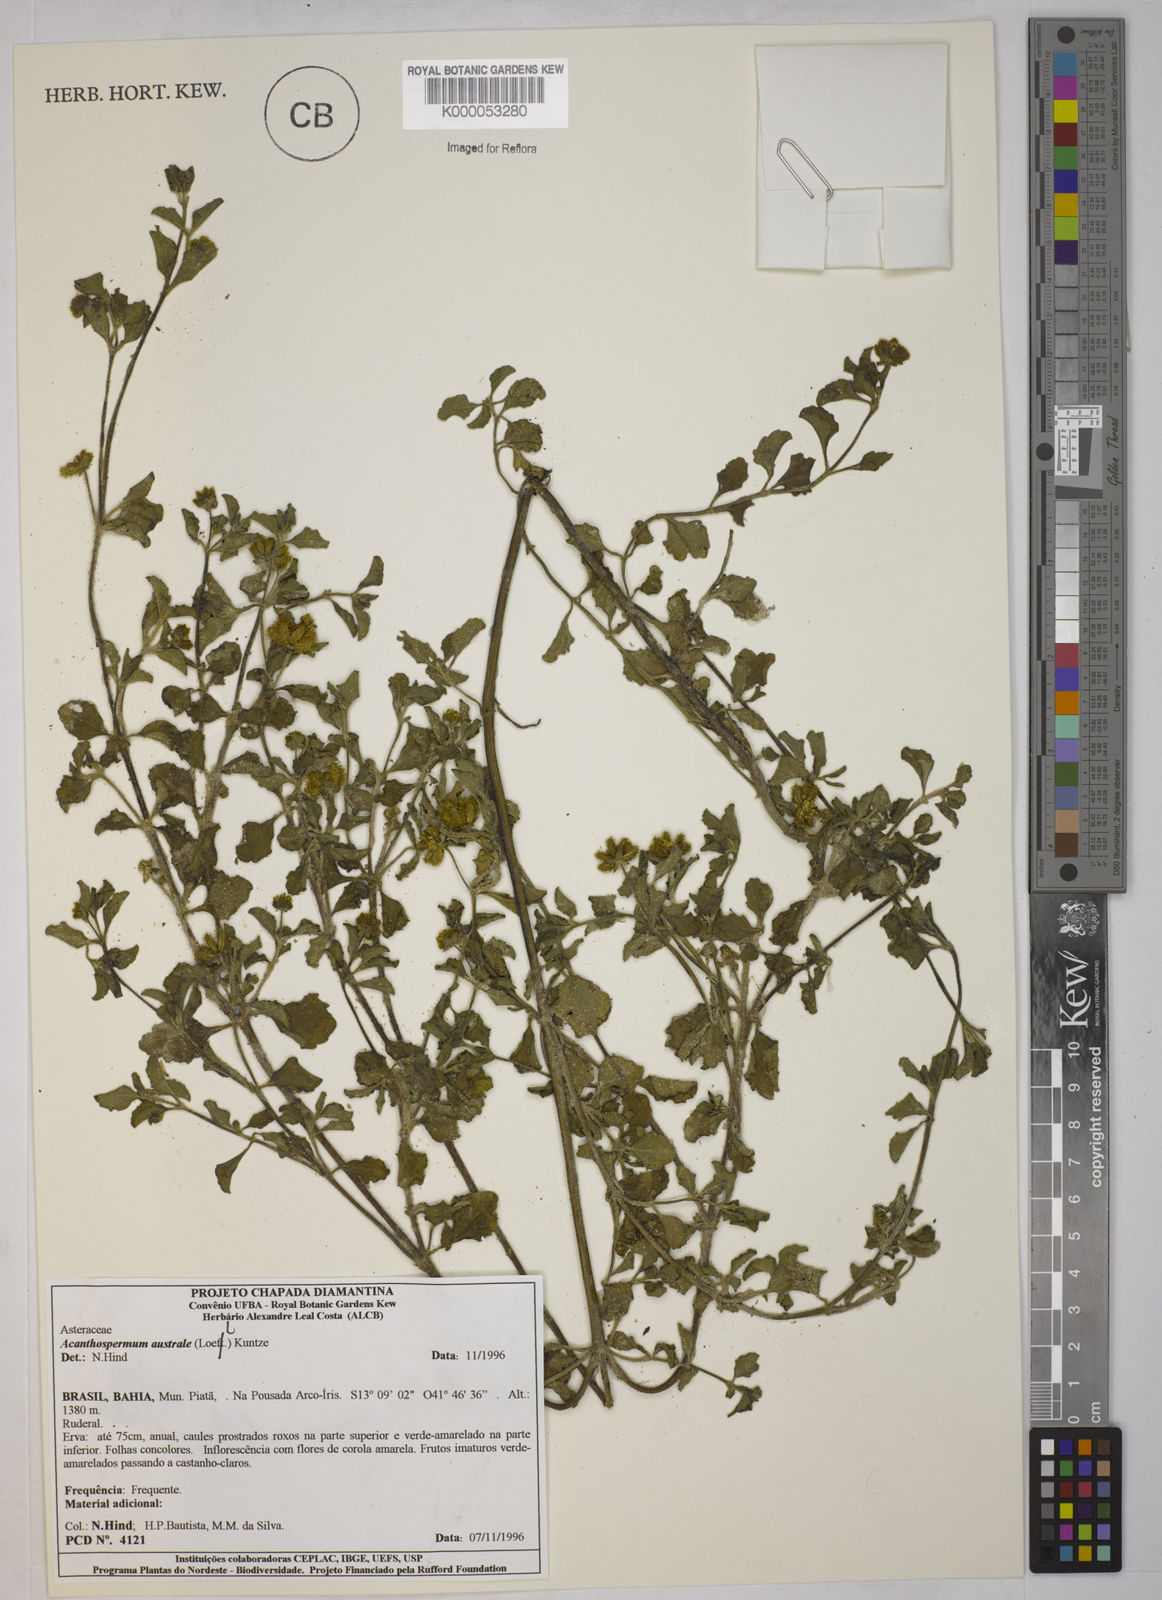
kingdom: Plantae
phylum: Tracheophyta
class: Magnoliopsida
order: Asterales
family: Asteraceae
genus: Acanthospermum
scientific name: Acanthospermum australe
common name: Paraguayan starbur
